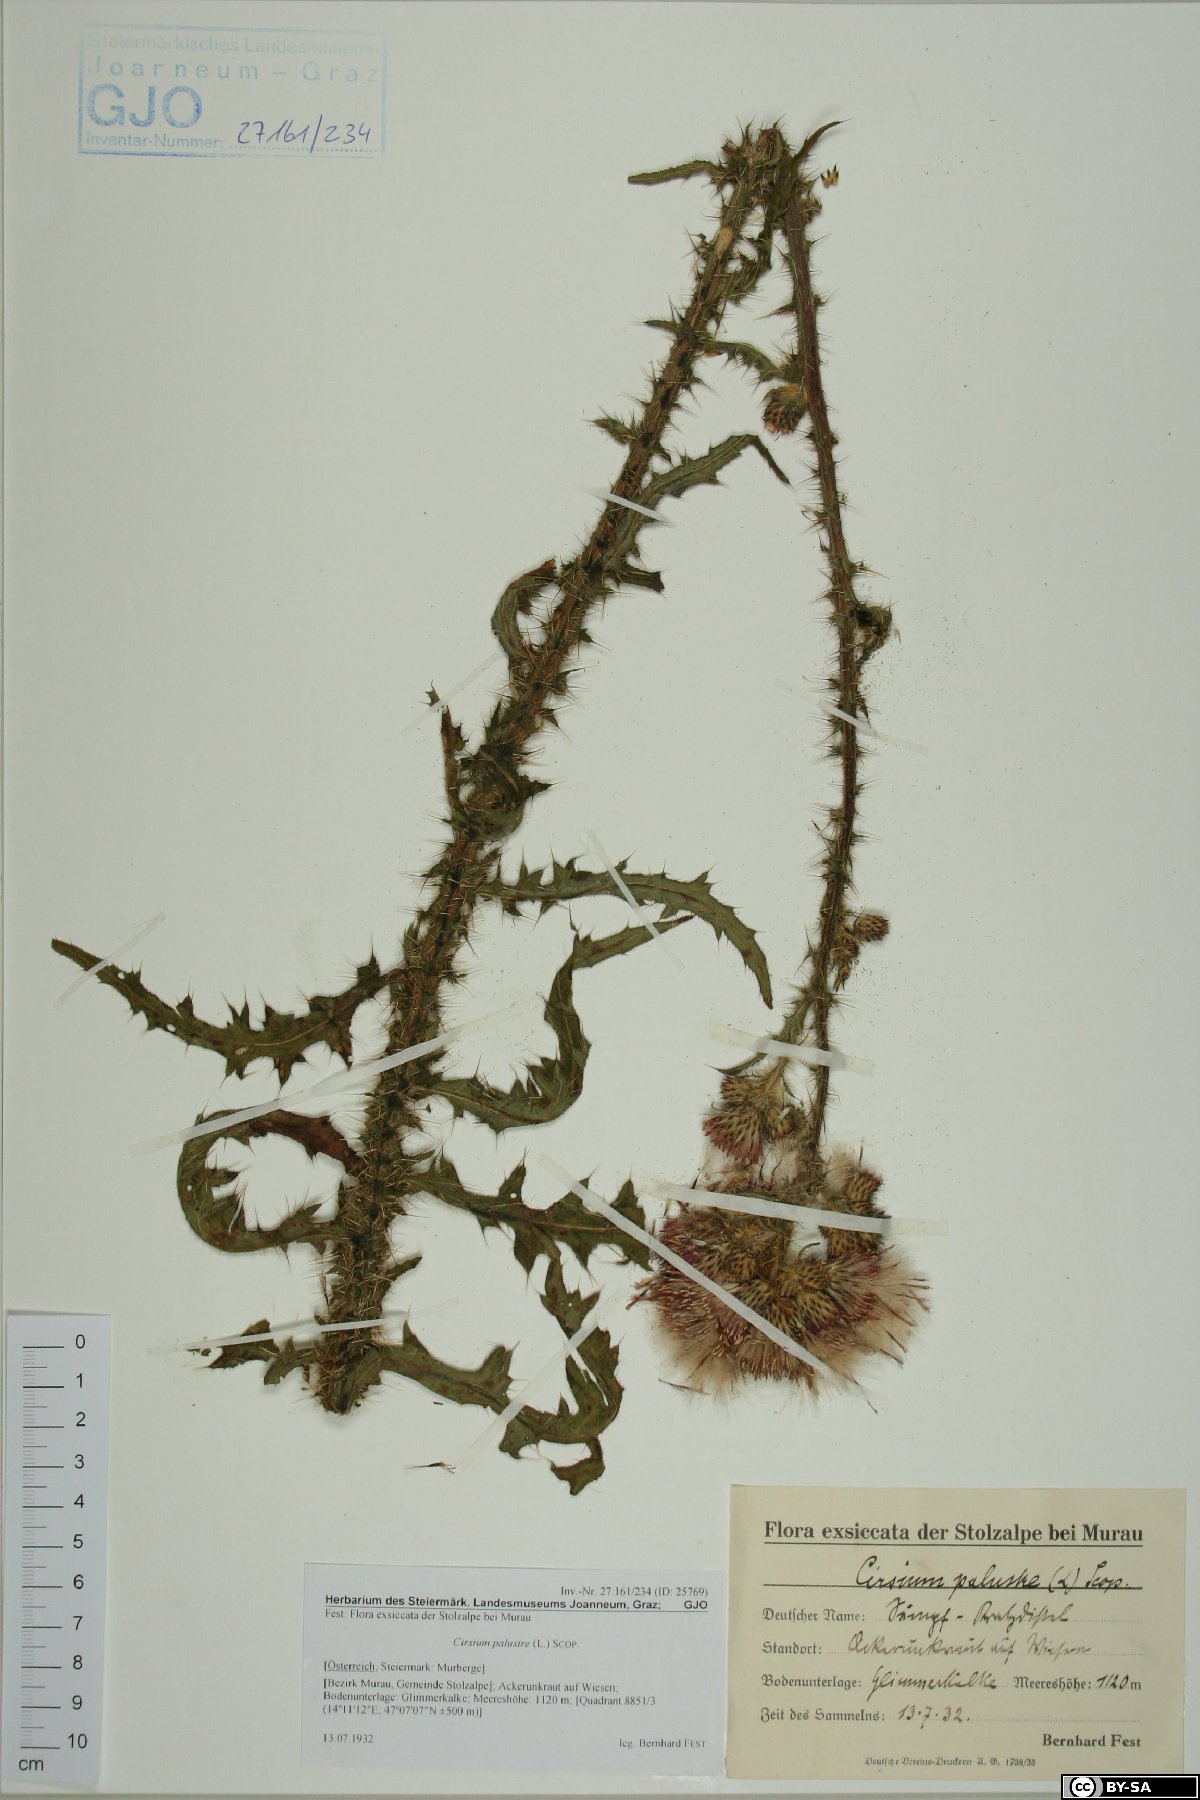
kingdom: Plantae
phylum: Tracheophyta
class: Magnoliopsida
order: Asterales
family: Asteraceae
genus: Cirsium
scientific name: Cirsium palustre
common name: Marsh thistle
